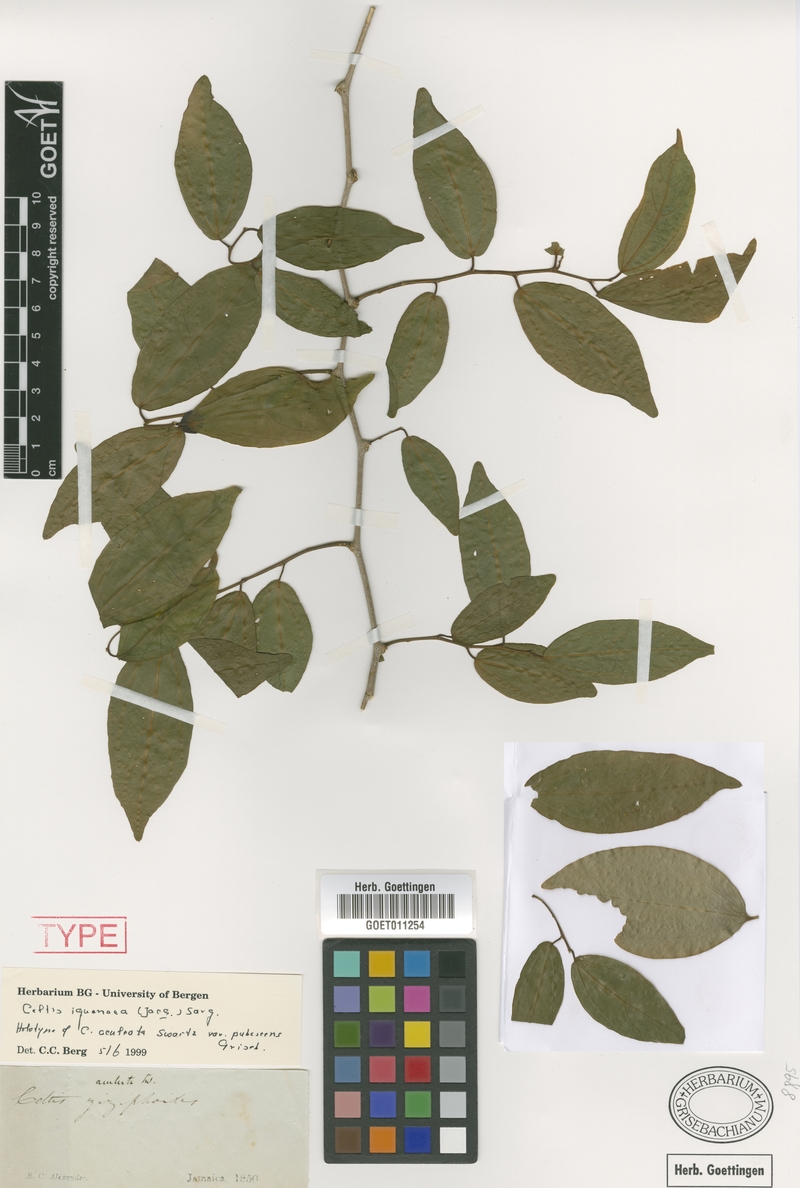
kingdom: Plantae
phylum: Tracheophyta
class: Magnoliopsida
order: Rosales
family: Cannabaceae
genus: Celtis
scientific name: Celtis iguanaea
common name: Iguana hackberry
